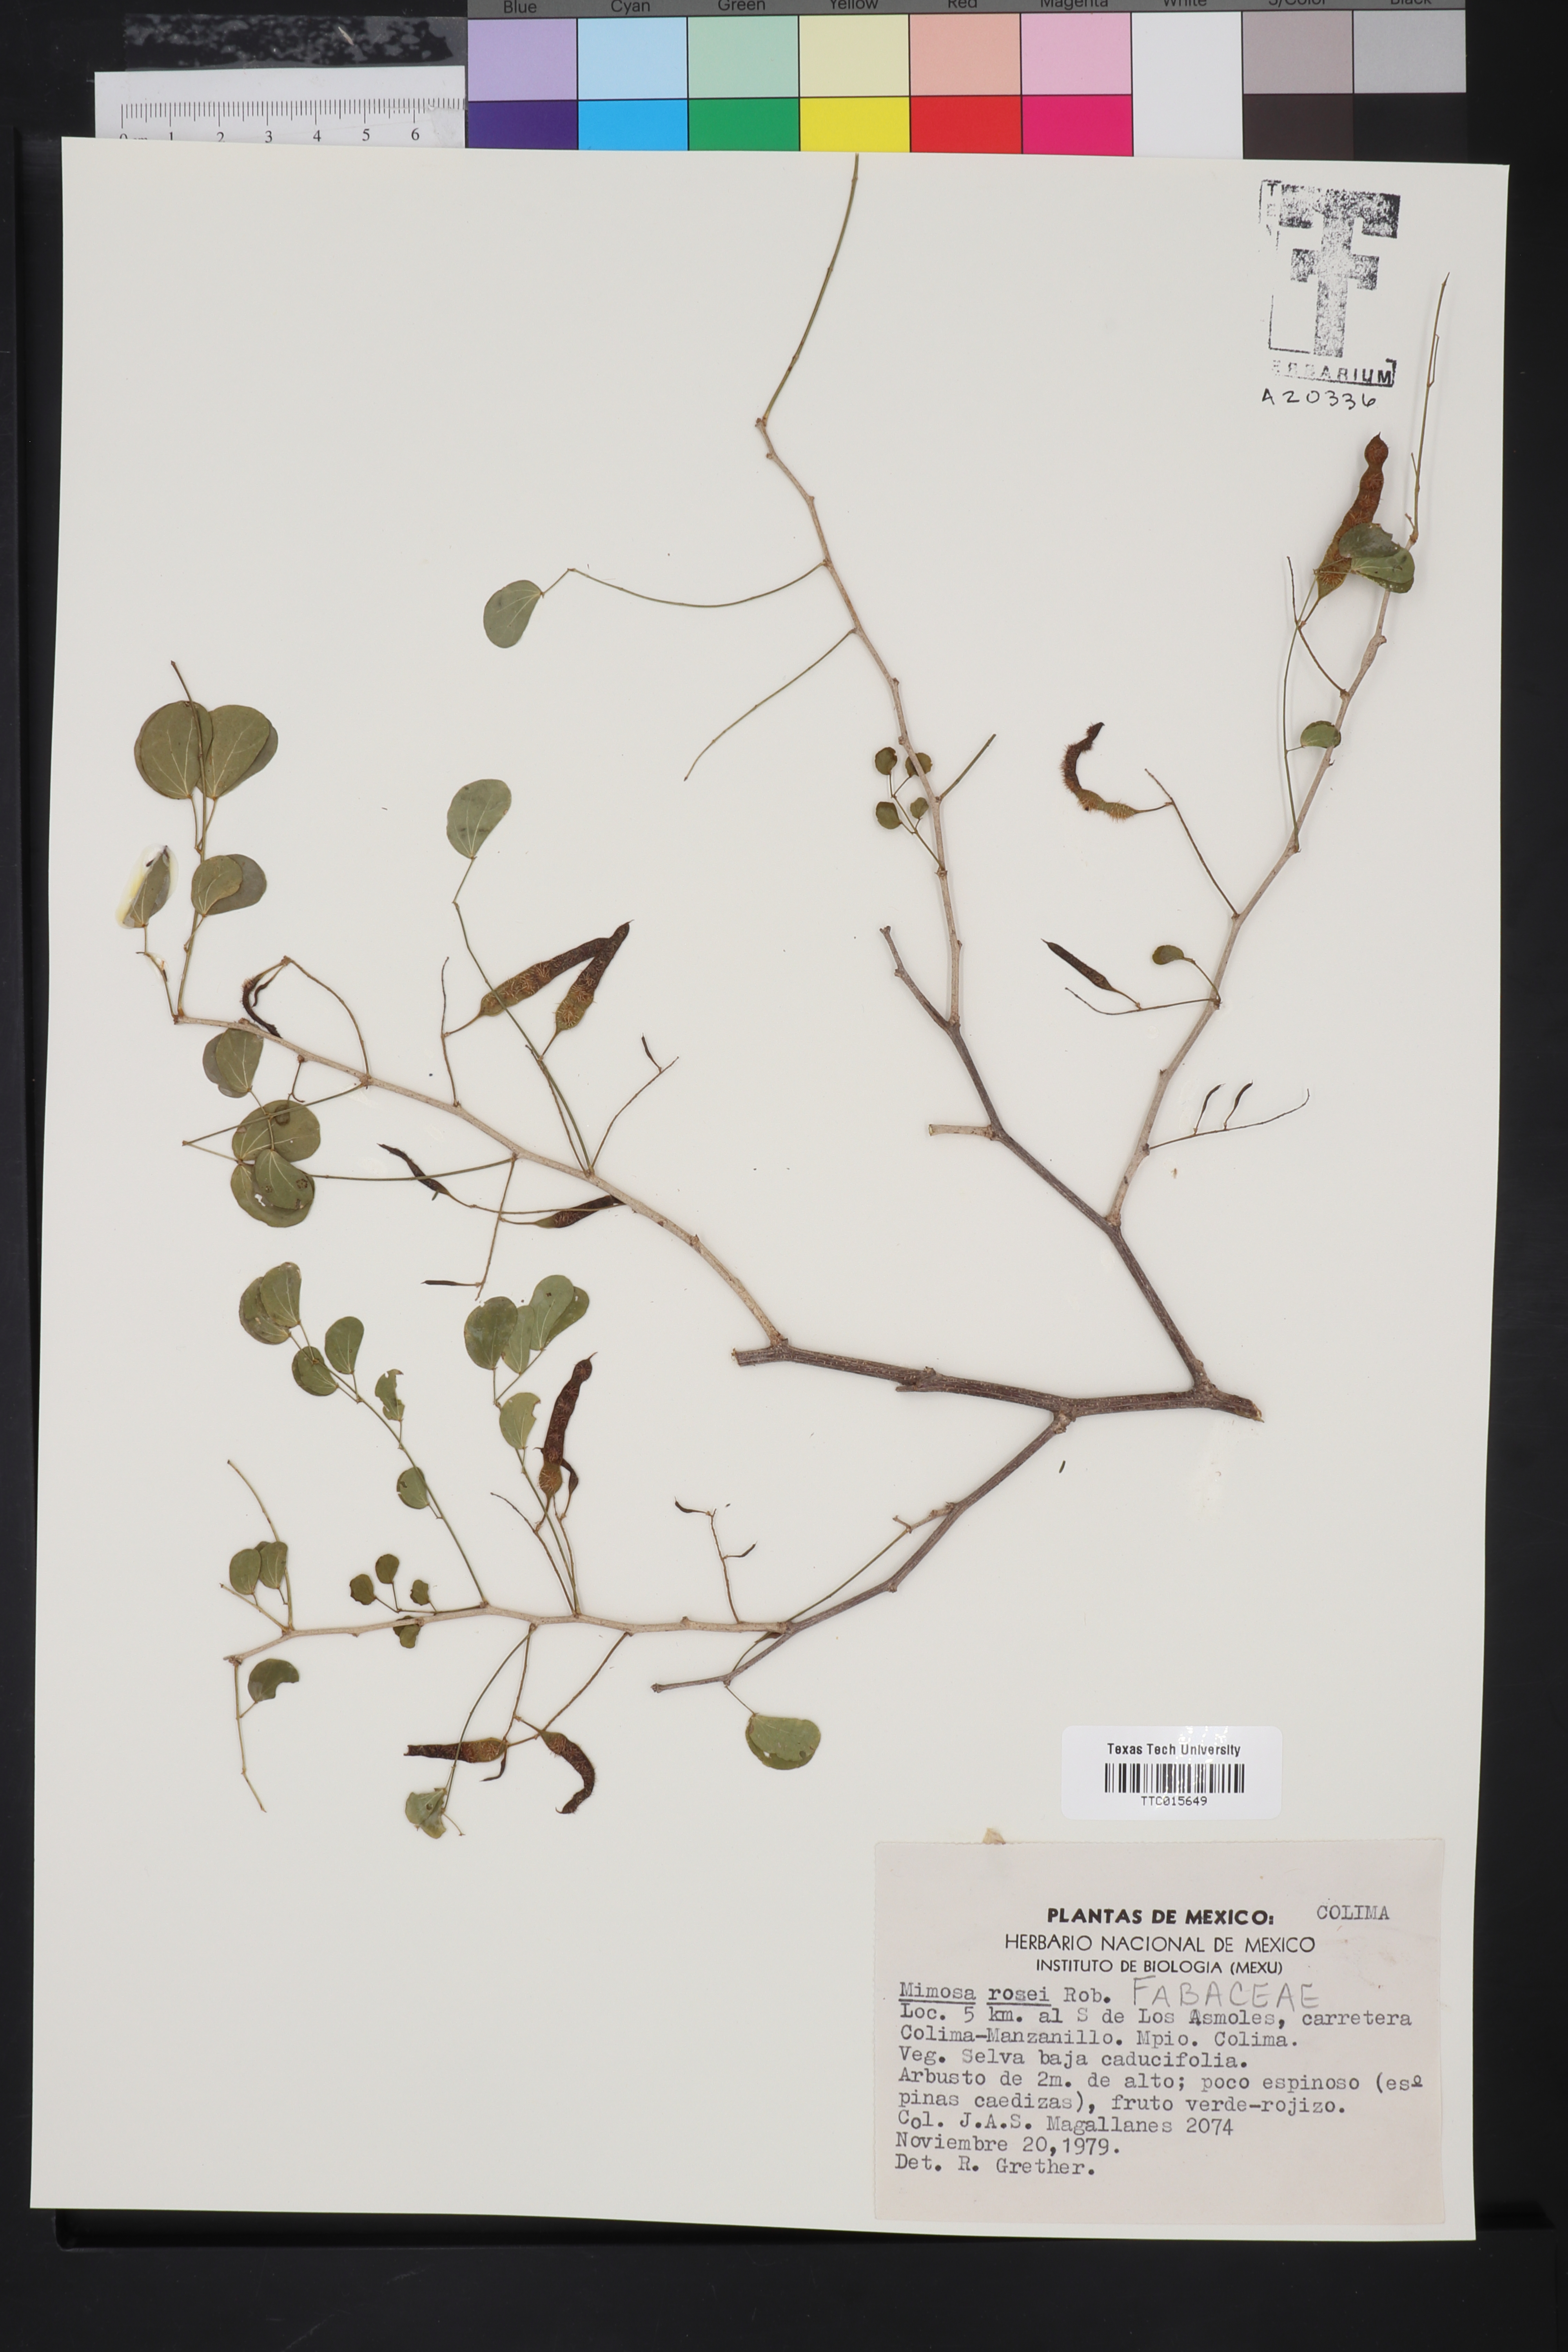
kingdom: Plantae
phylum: Tracheophyta
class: Magnoliopsida
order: Fabales
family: Fabaceae
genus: Mimosa
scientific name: Mimosa rosei
